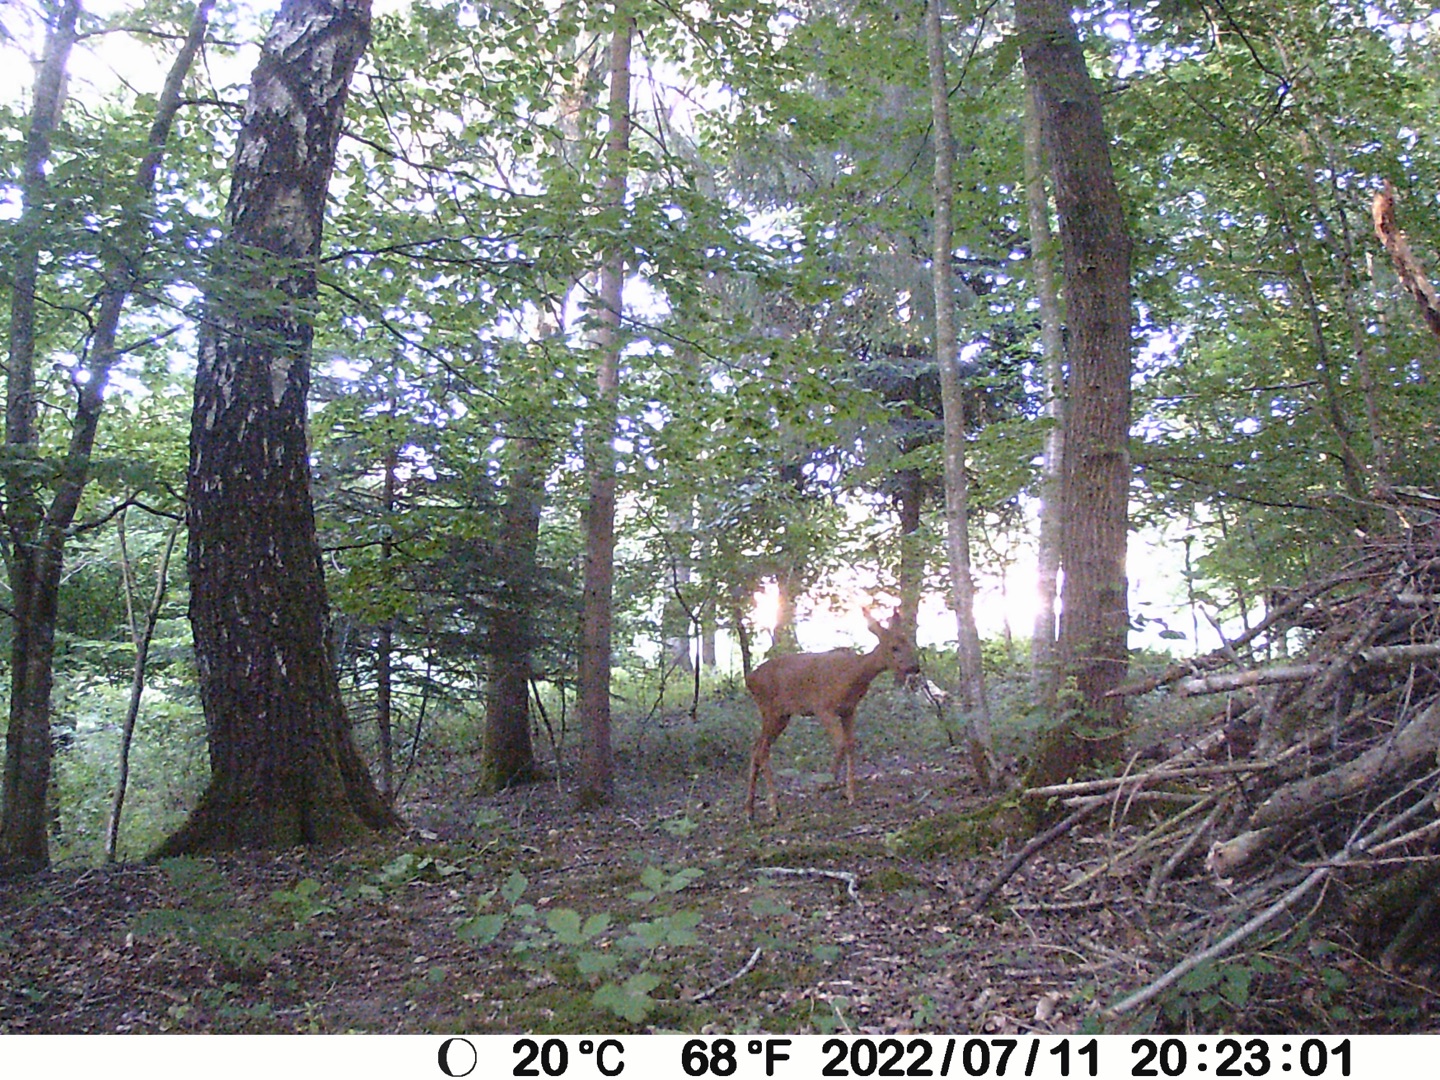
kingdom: Animalia
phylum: Chordata
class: Mammalia
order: Artiodactyla
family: Cervidae
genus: Capreolus
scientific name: Capreolus capreolus
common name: Rådyr
